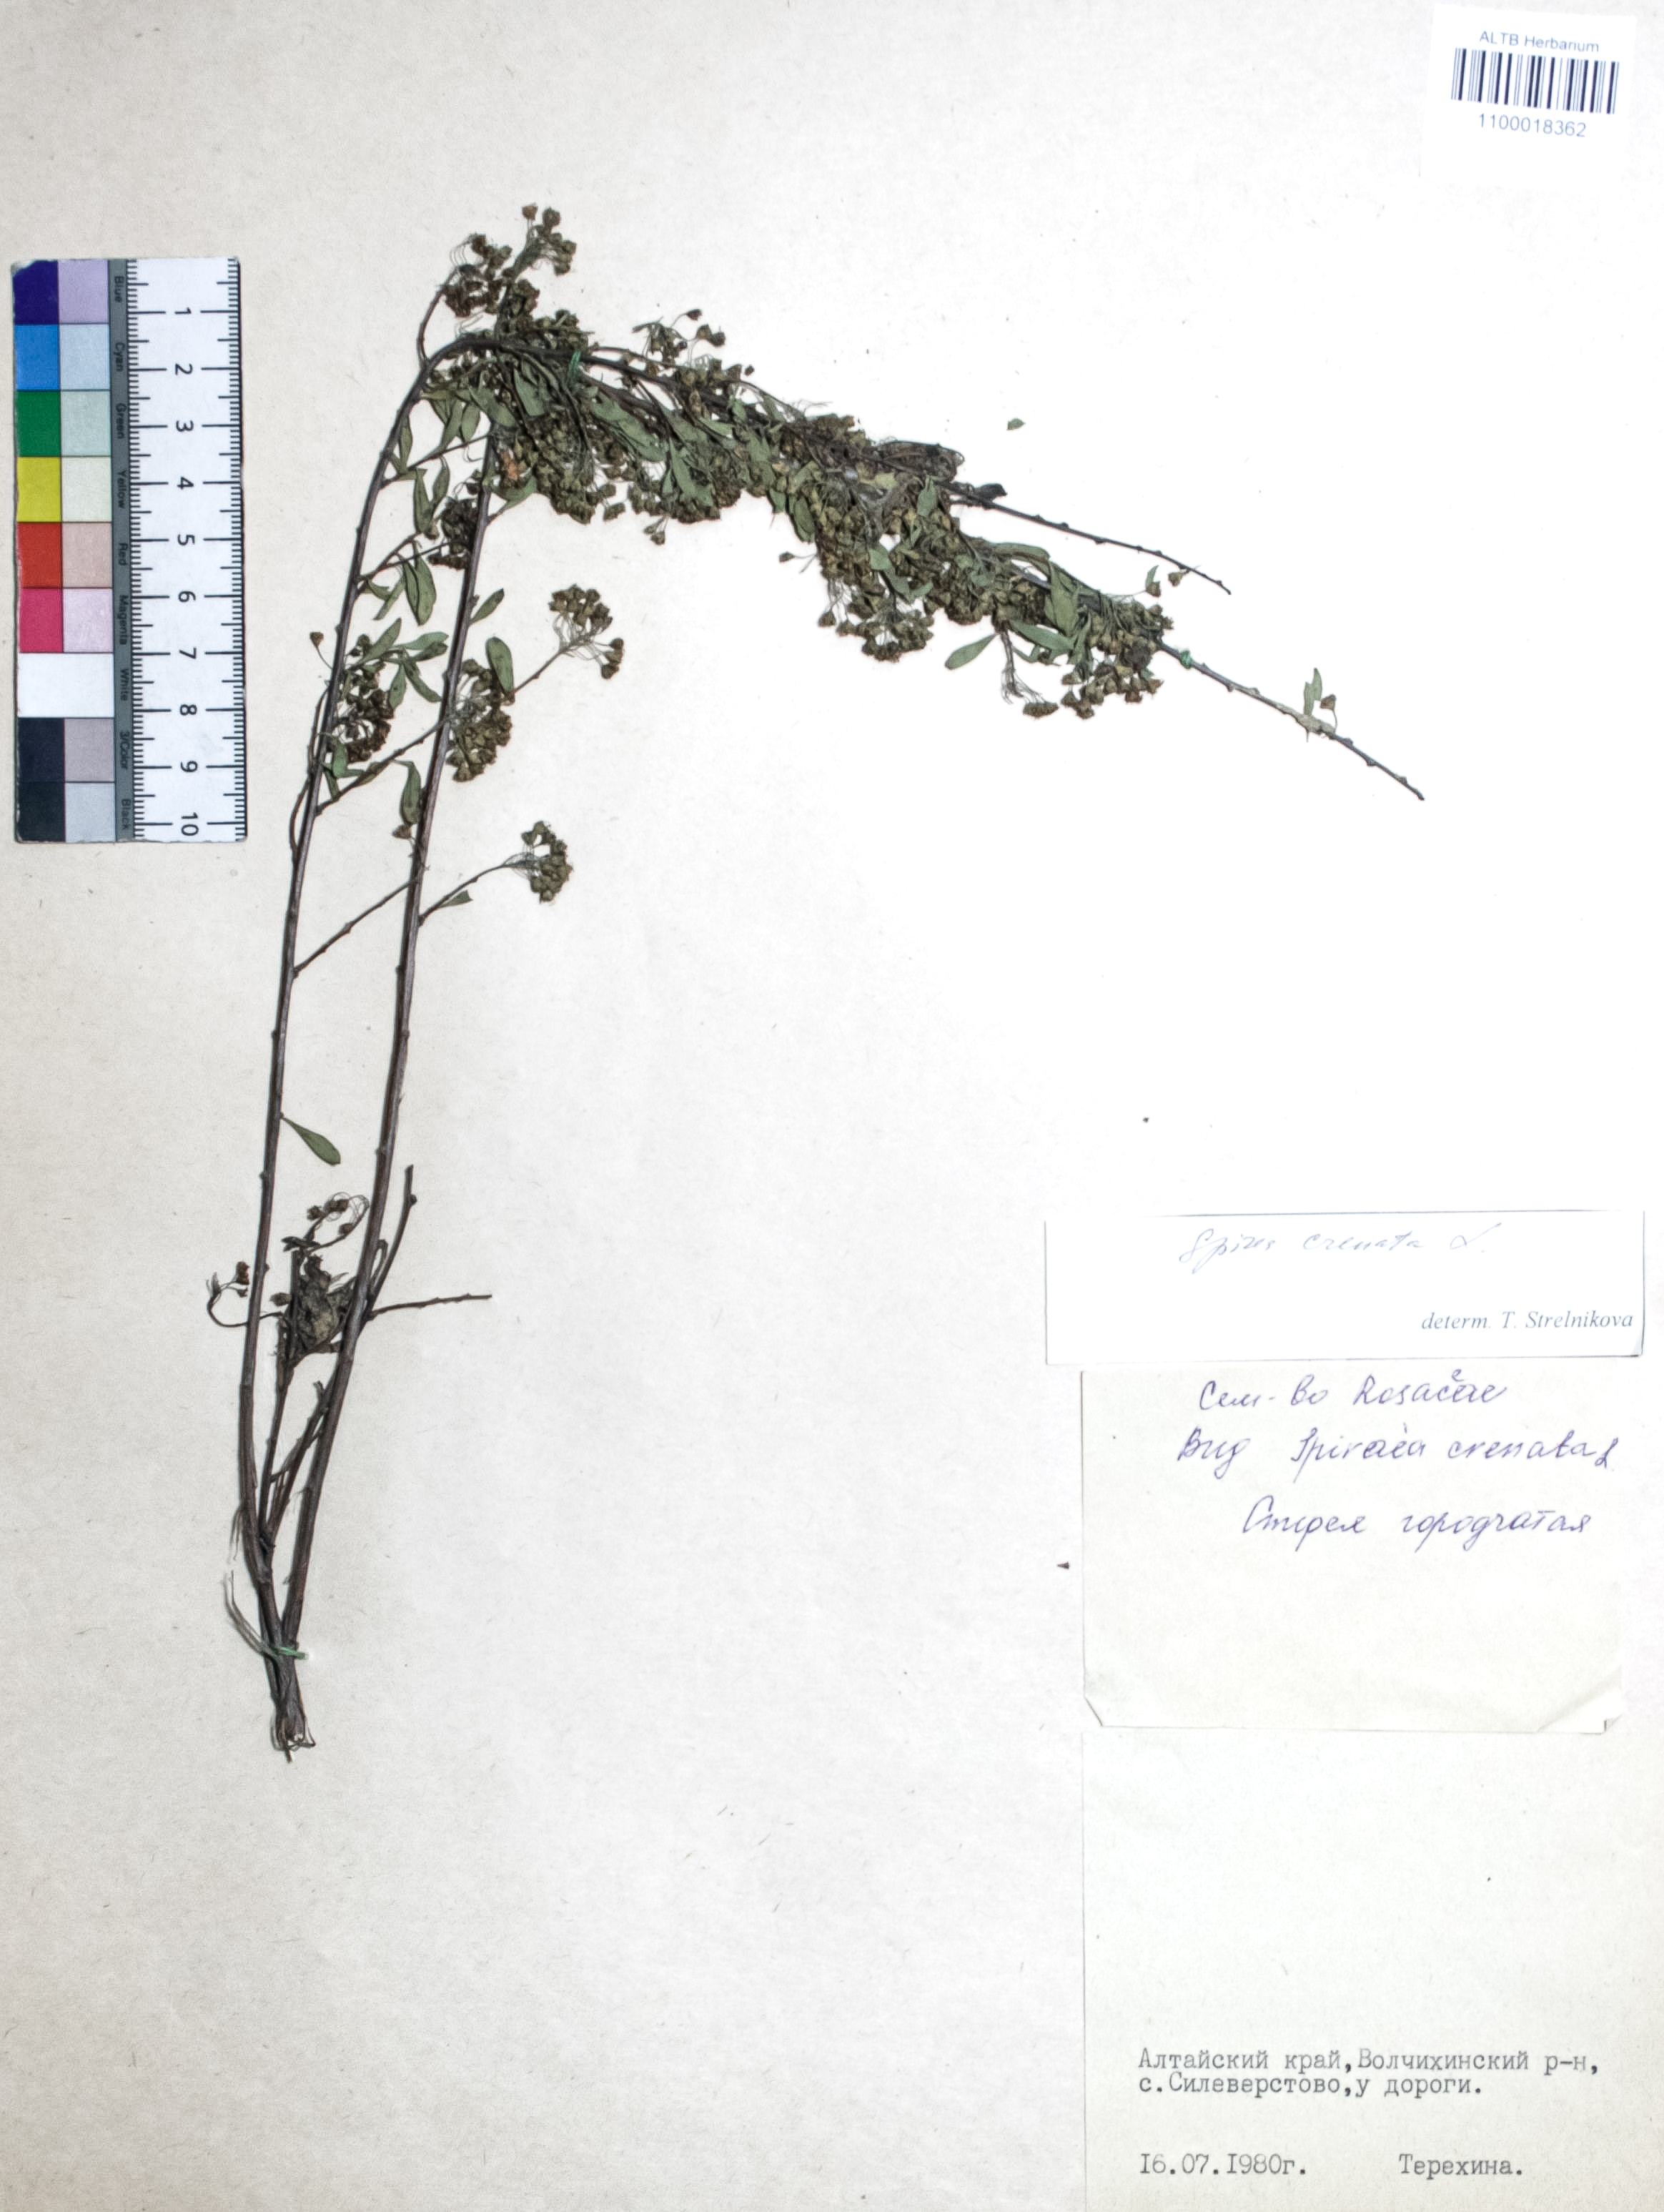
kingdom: Plantae
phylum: Tracheophyta
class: Magnoliopsida
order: Rosales
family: Rosaceae
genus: Spiraea
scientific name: Spiraea crenata
